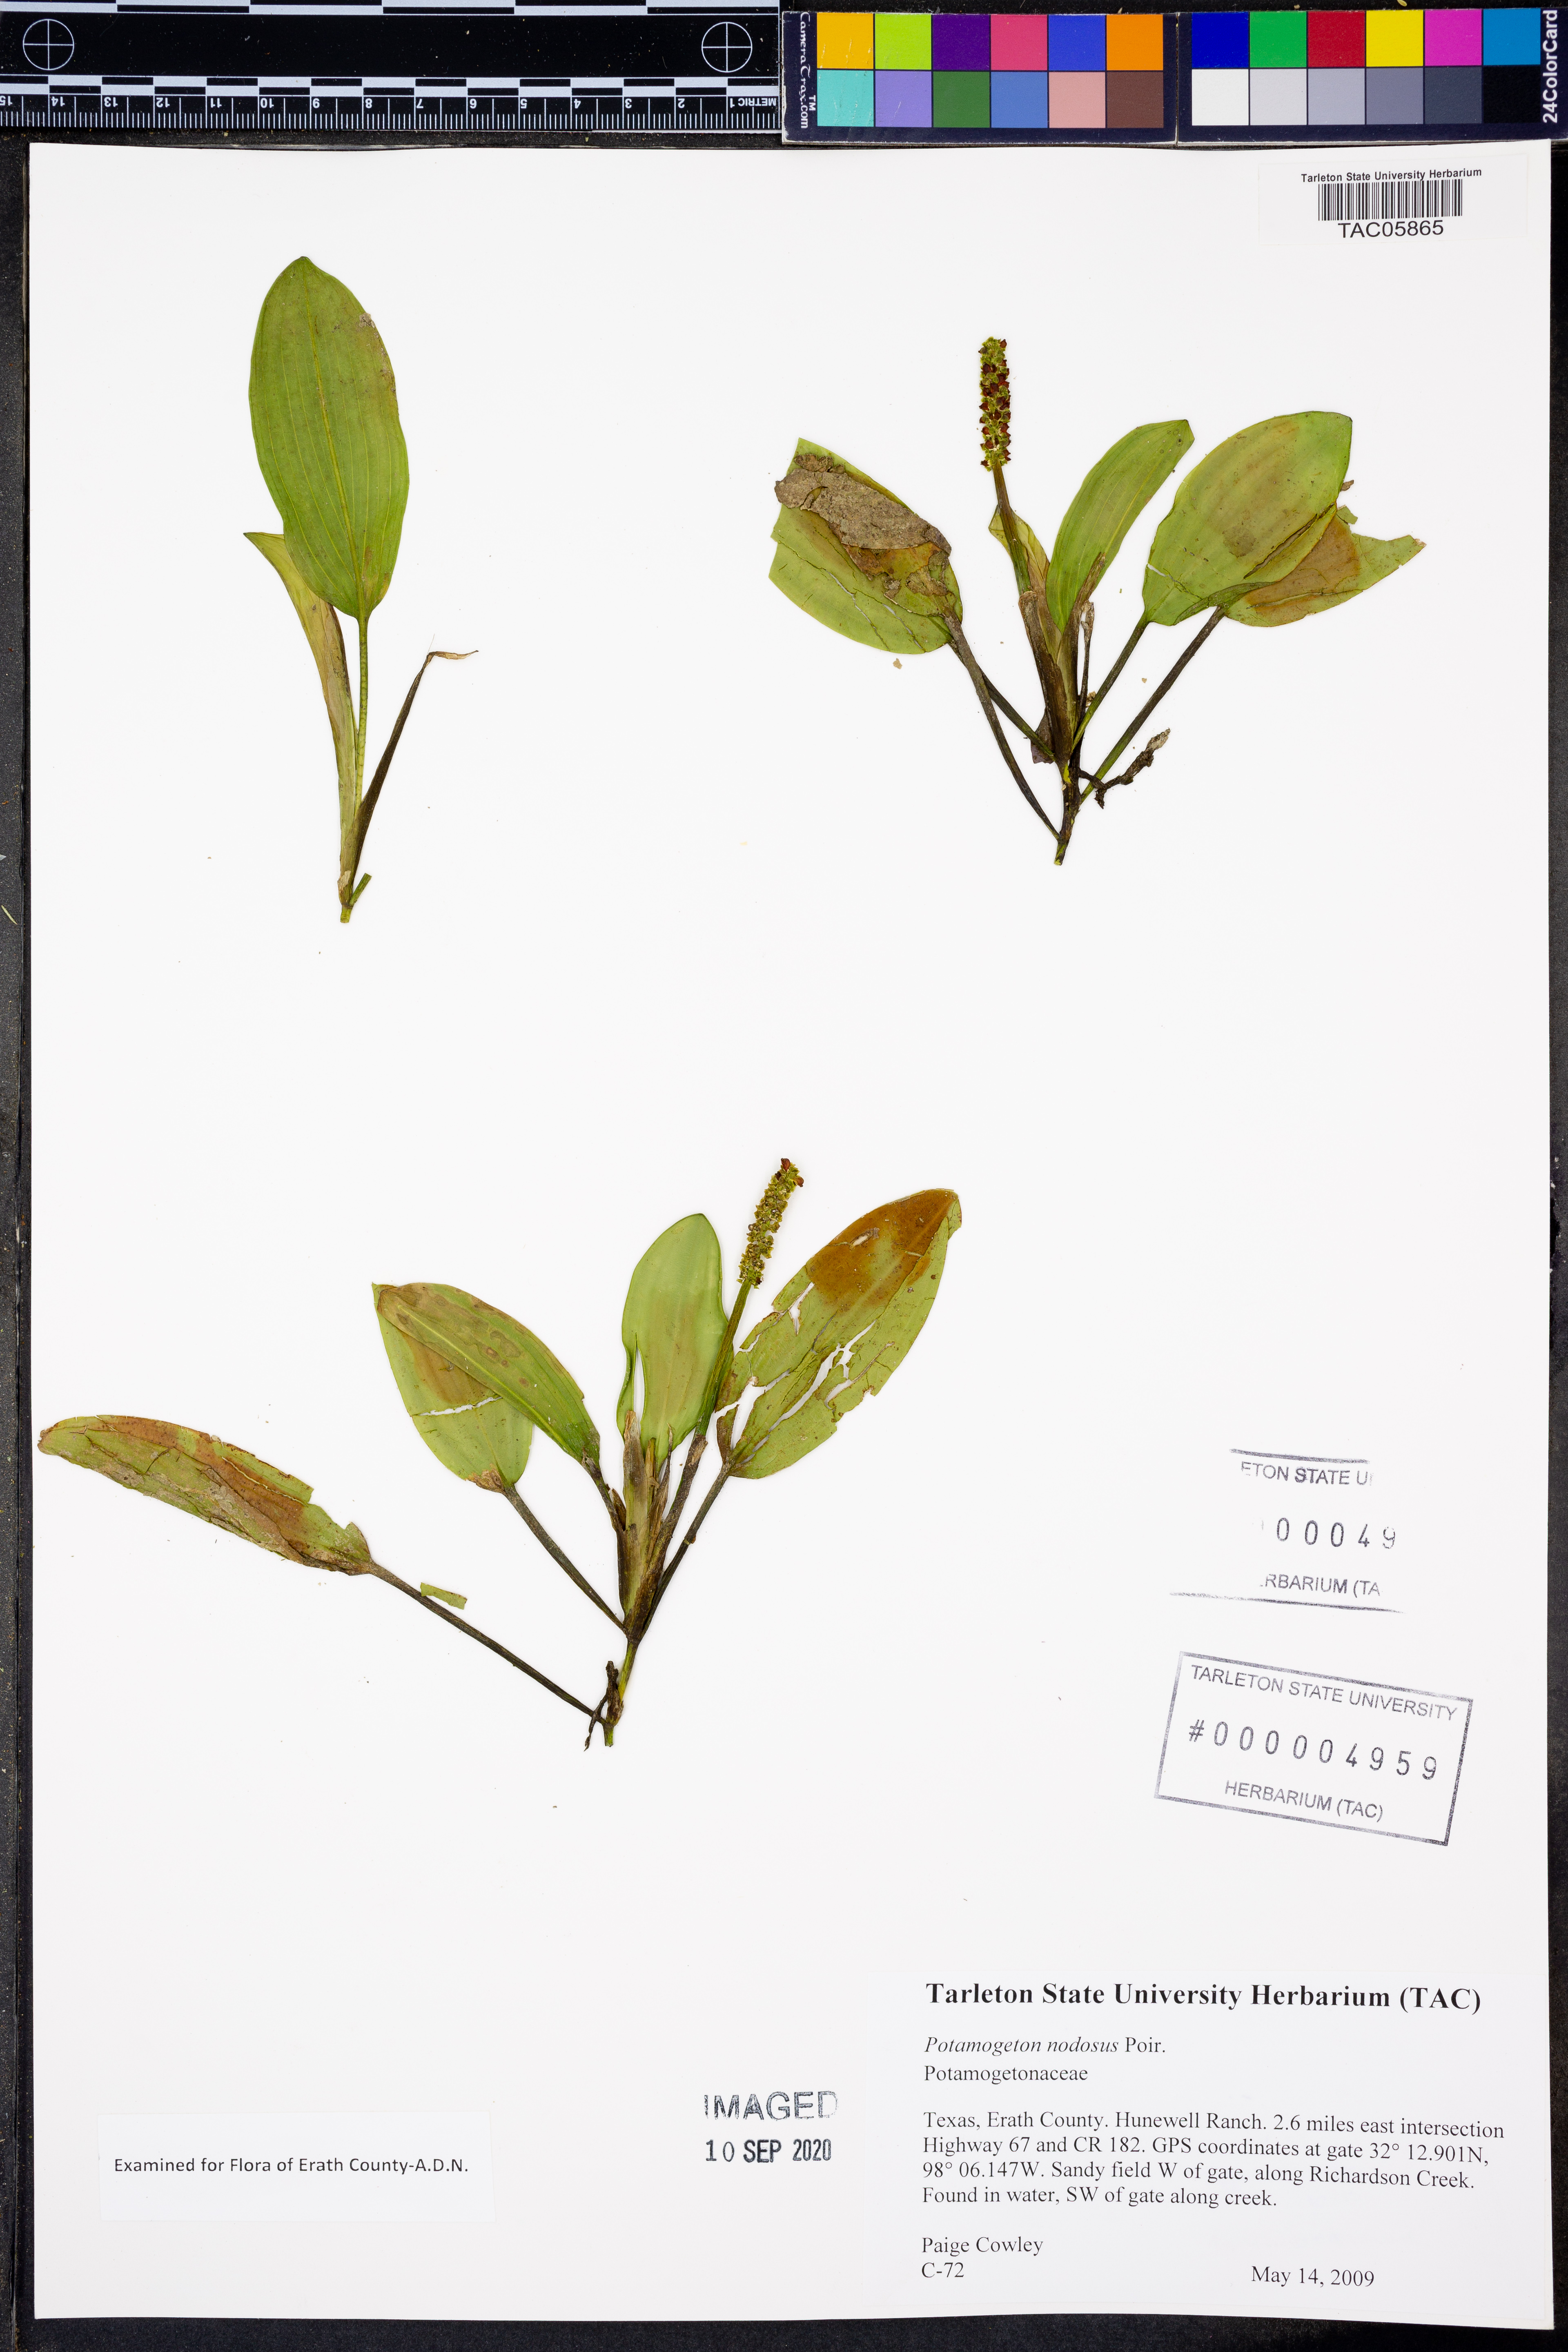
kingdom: Plantae
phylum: Tracheophyta
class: Liliopsida
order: Alismatales
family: Potamogetonaceae
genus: Potamogeton
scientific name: Potamogeton nodosus
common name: Loddon pondweed
